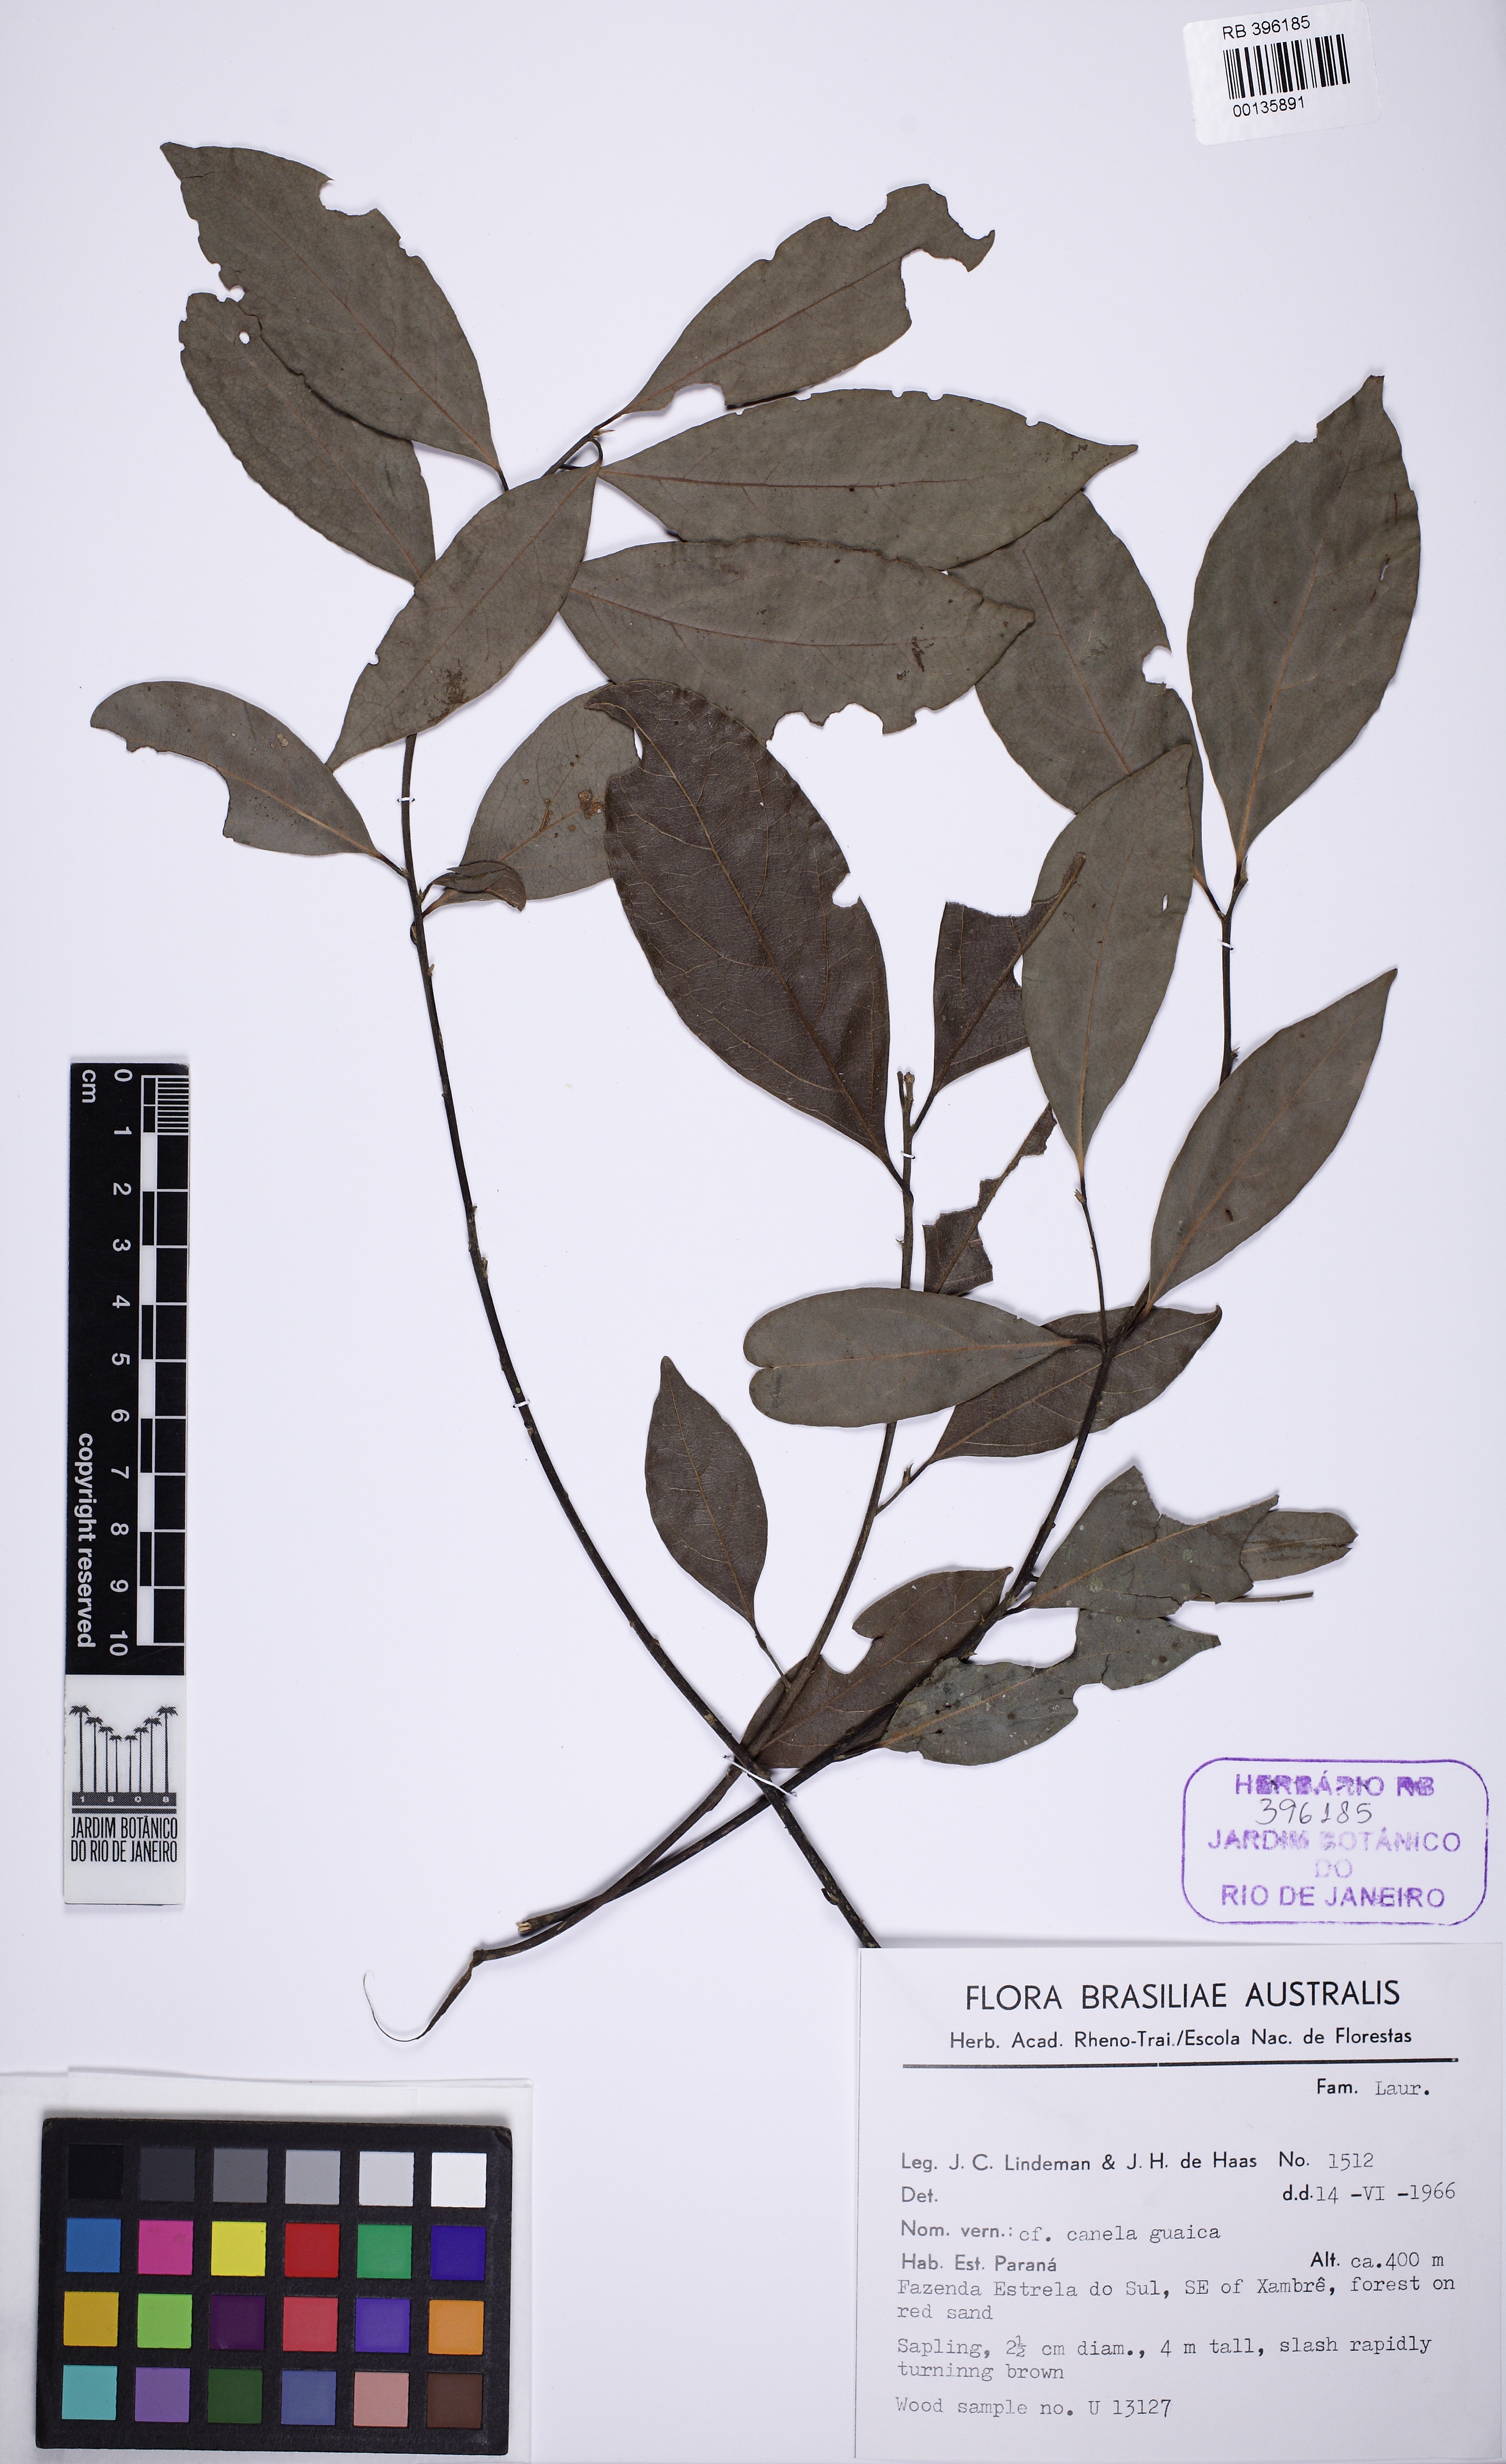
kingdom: Plantae
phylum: Tracheophyta
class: Magnoliopsida
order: Laurales
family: Lauraceae
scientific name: Lauraceae
